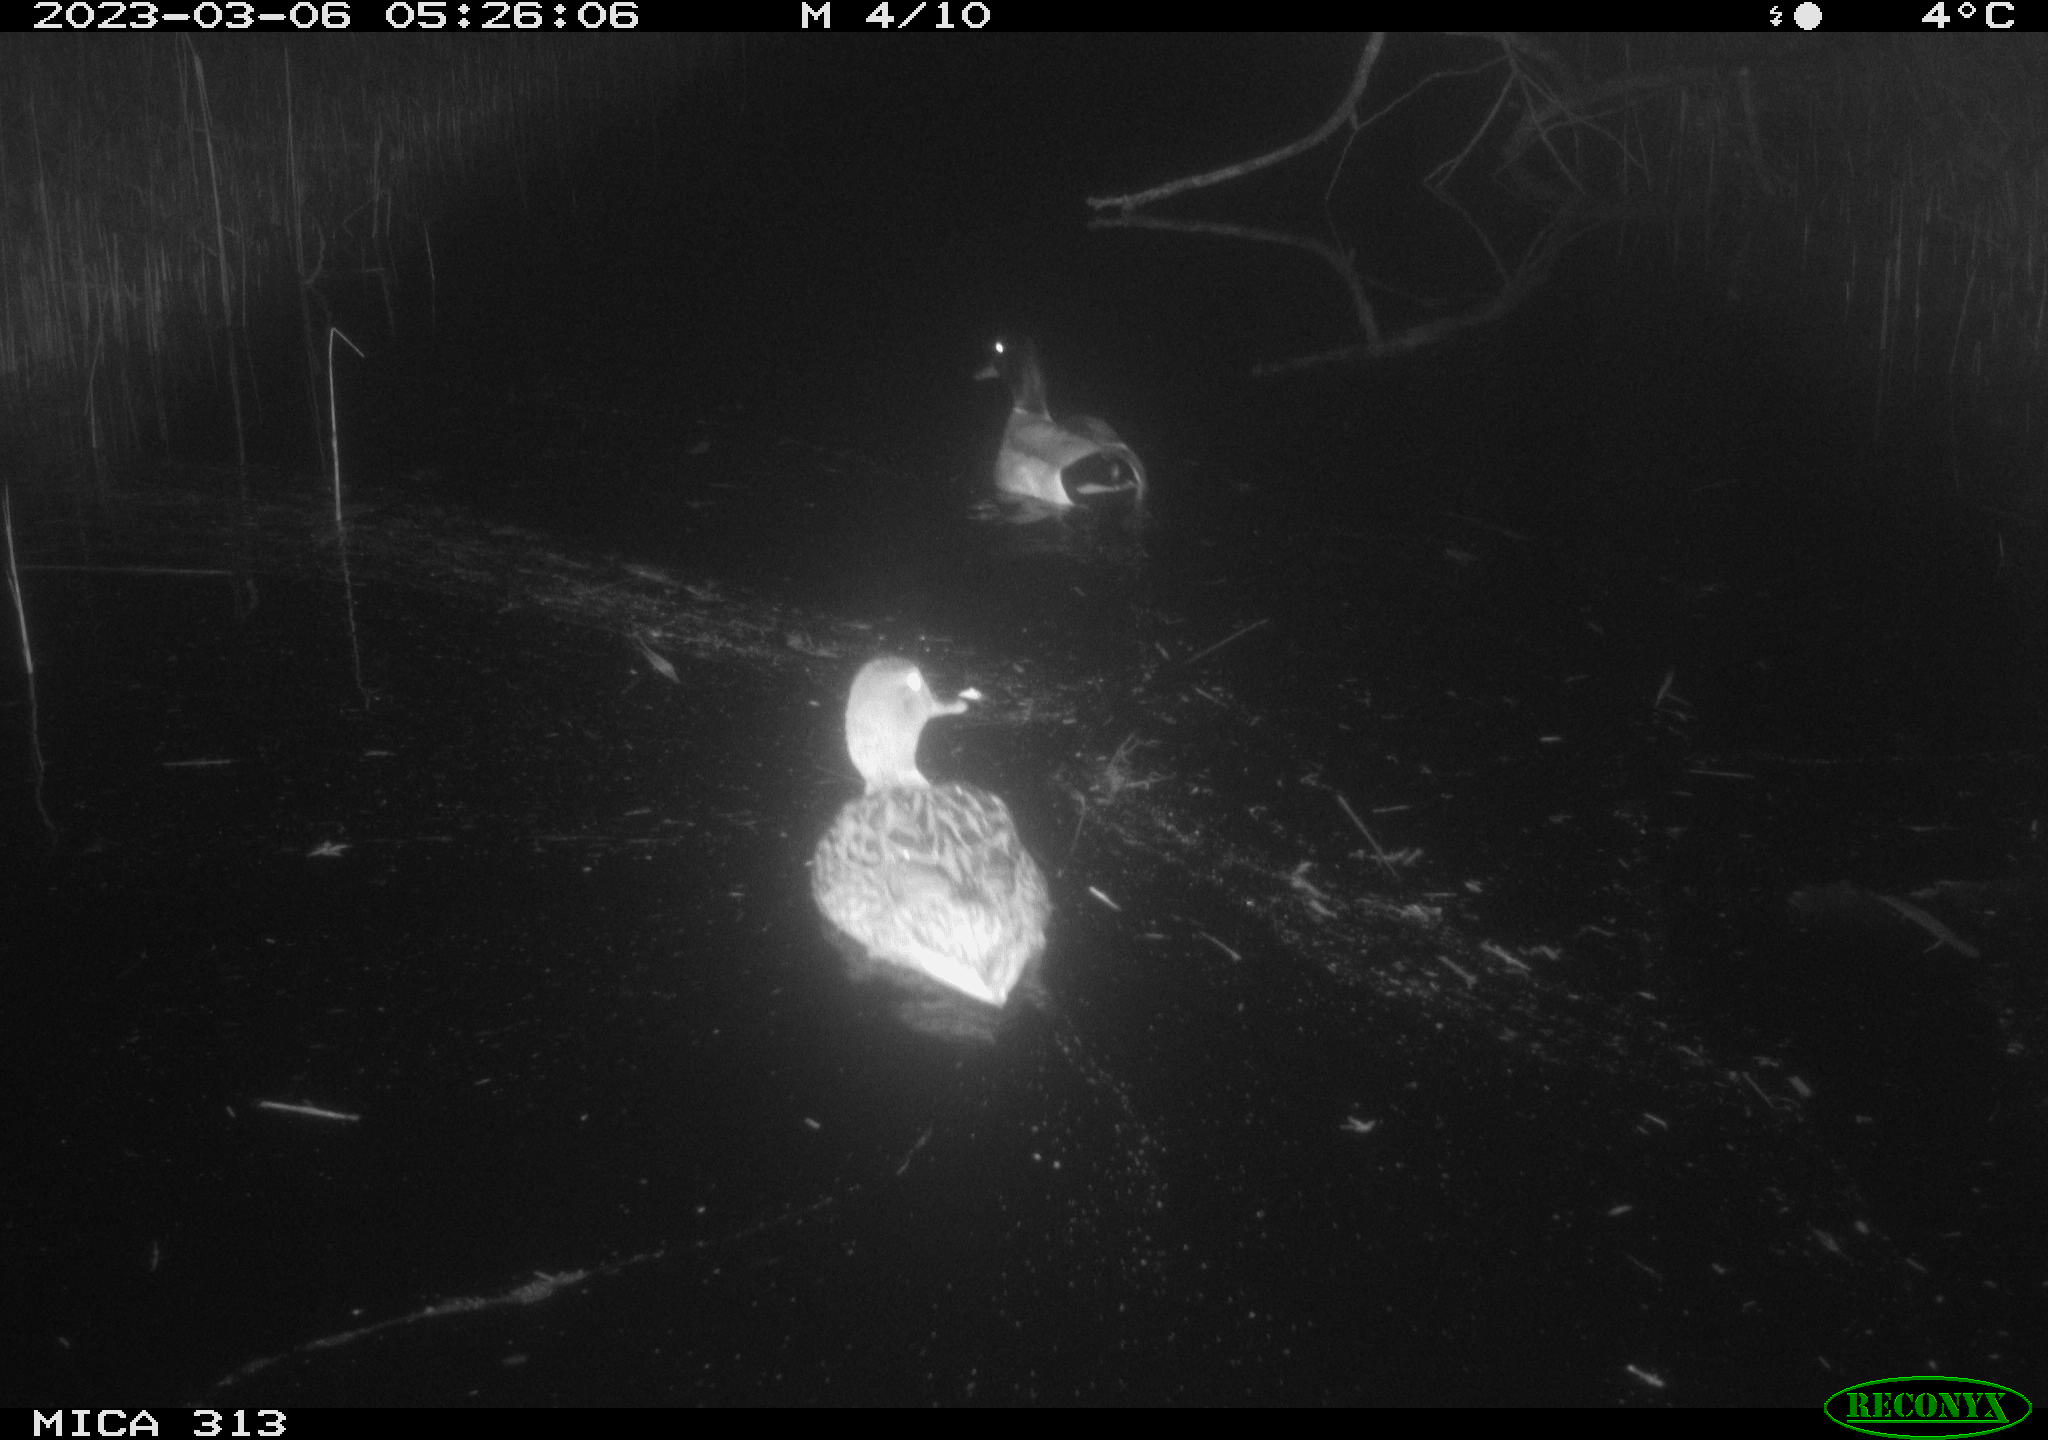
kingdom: Animalia
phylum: Chordata
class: Aves
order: Anseriformes
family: Anatidae
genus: Anas
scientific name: Anas platyrhynchos
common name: Mallard
